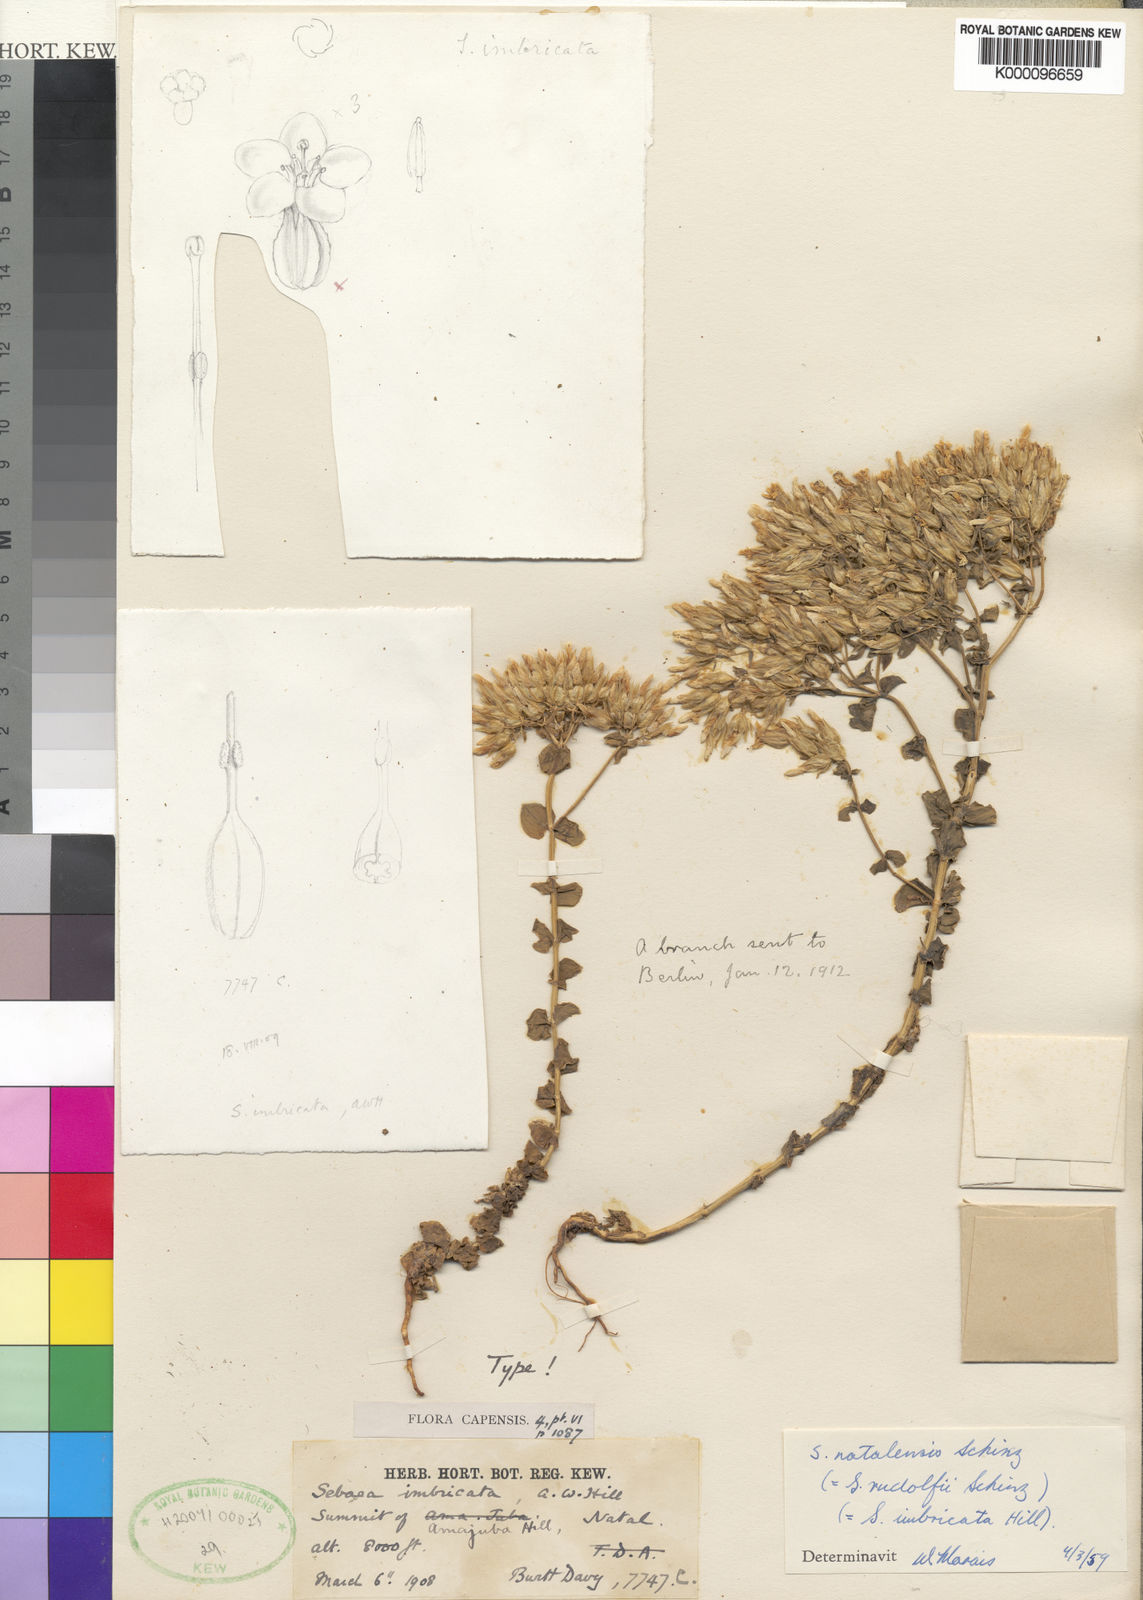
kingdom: Plantae
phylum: Tracheophyta
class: Magnoliopsida
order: Gentianales
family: Gentianaceae
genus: Sebaea
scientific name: Sebaea natalensis
